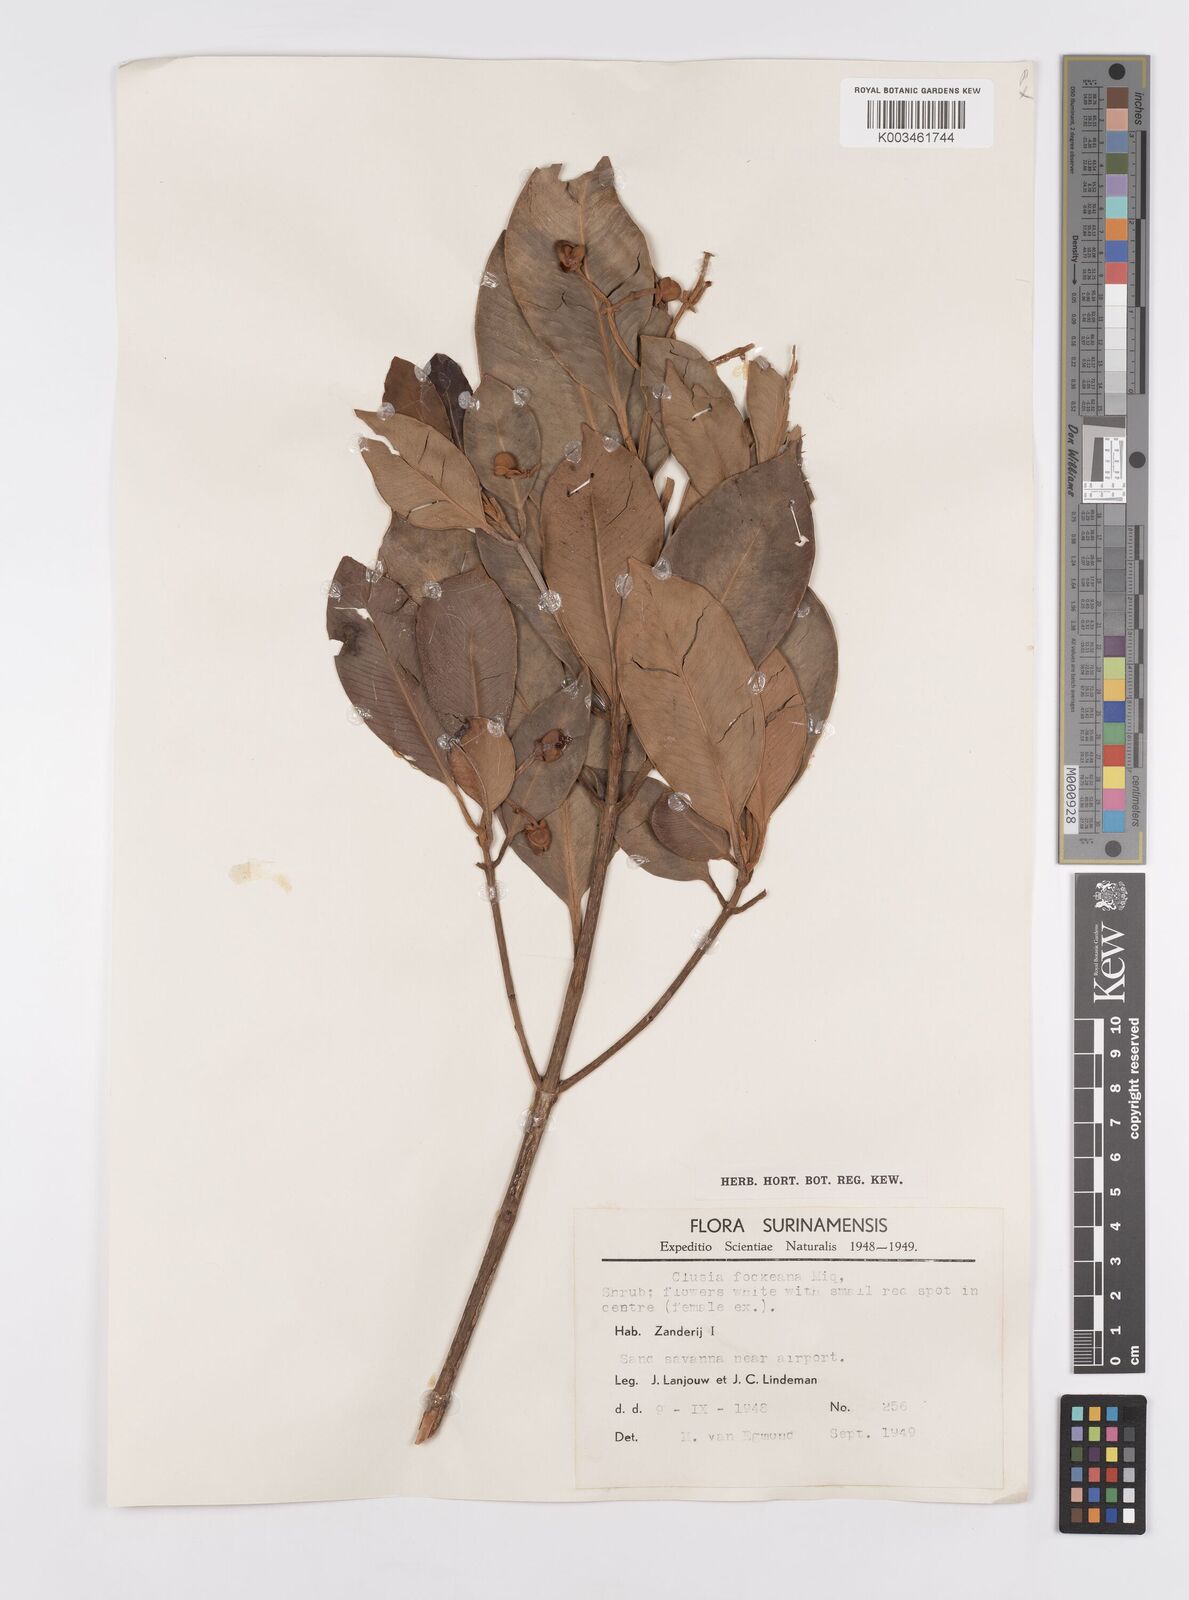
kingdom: Plantae
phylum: Tracheophyta
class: Magnoliopsida
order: Malpighiales
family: Clusiaceae
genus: Clusia
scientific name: Clusia fockeana
